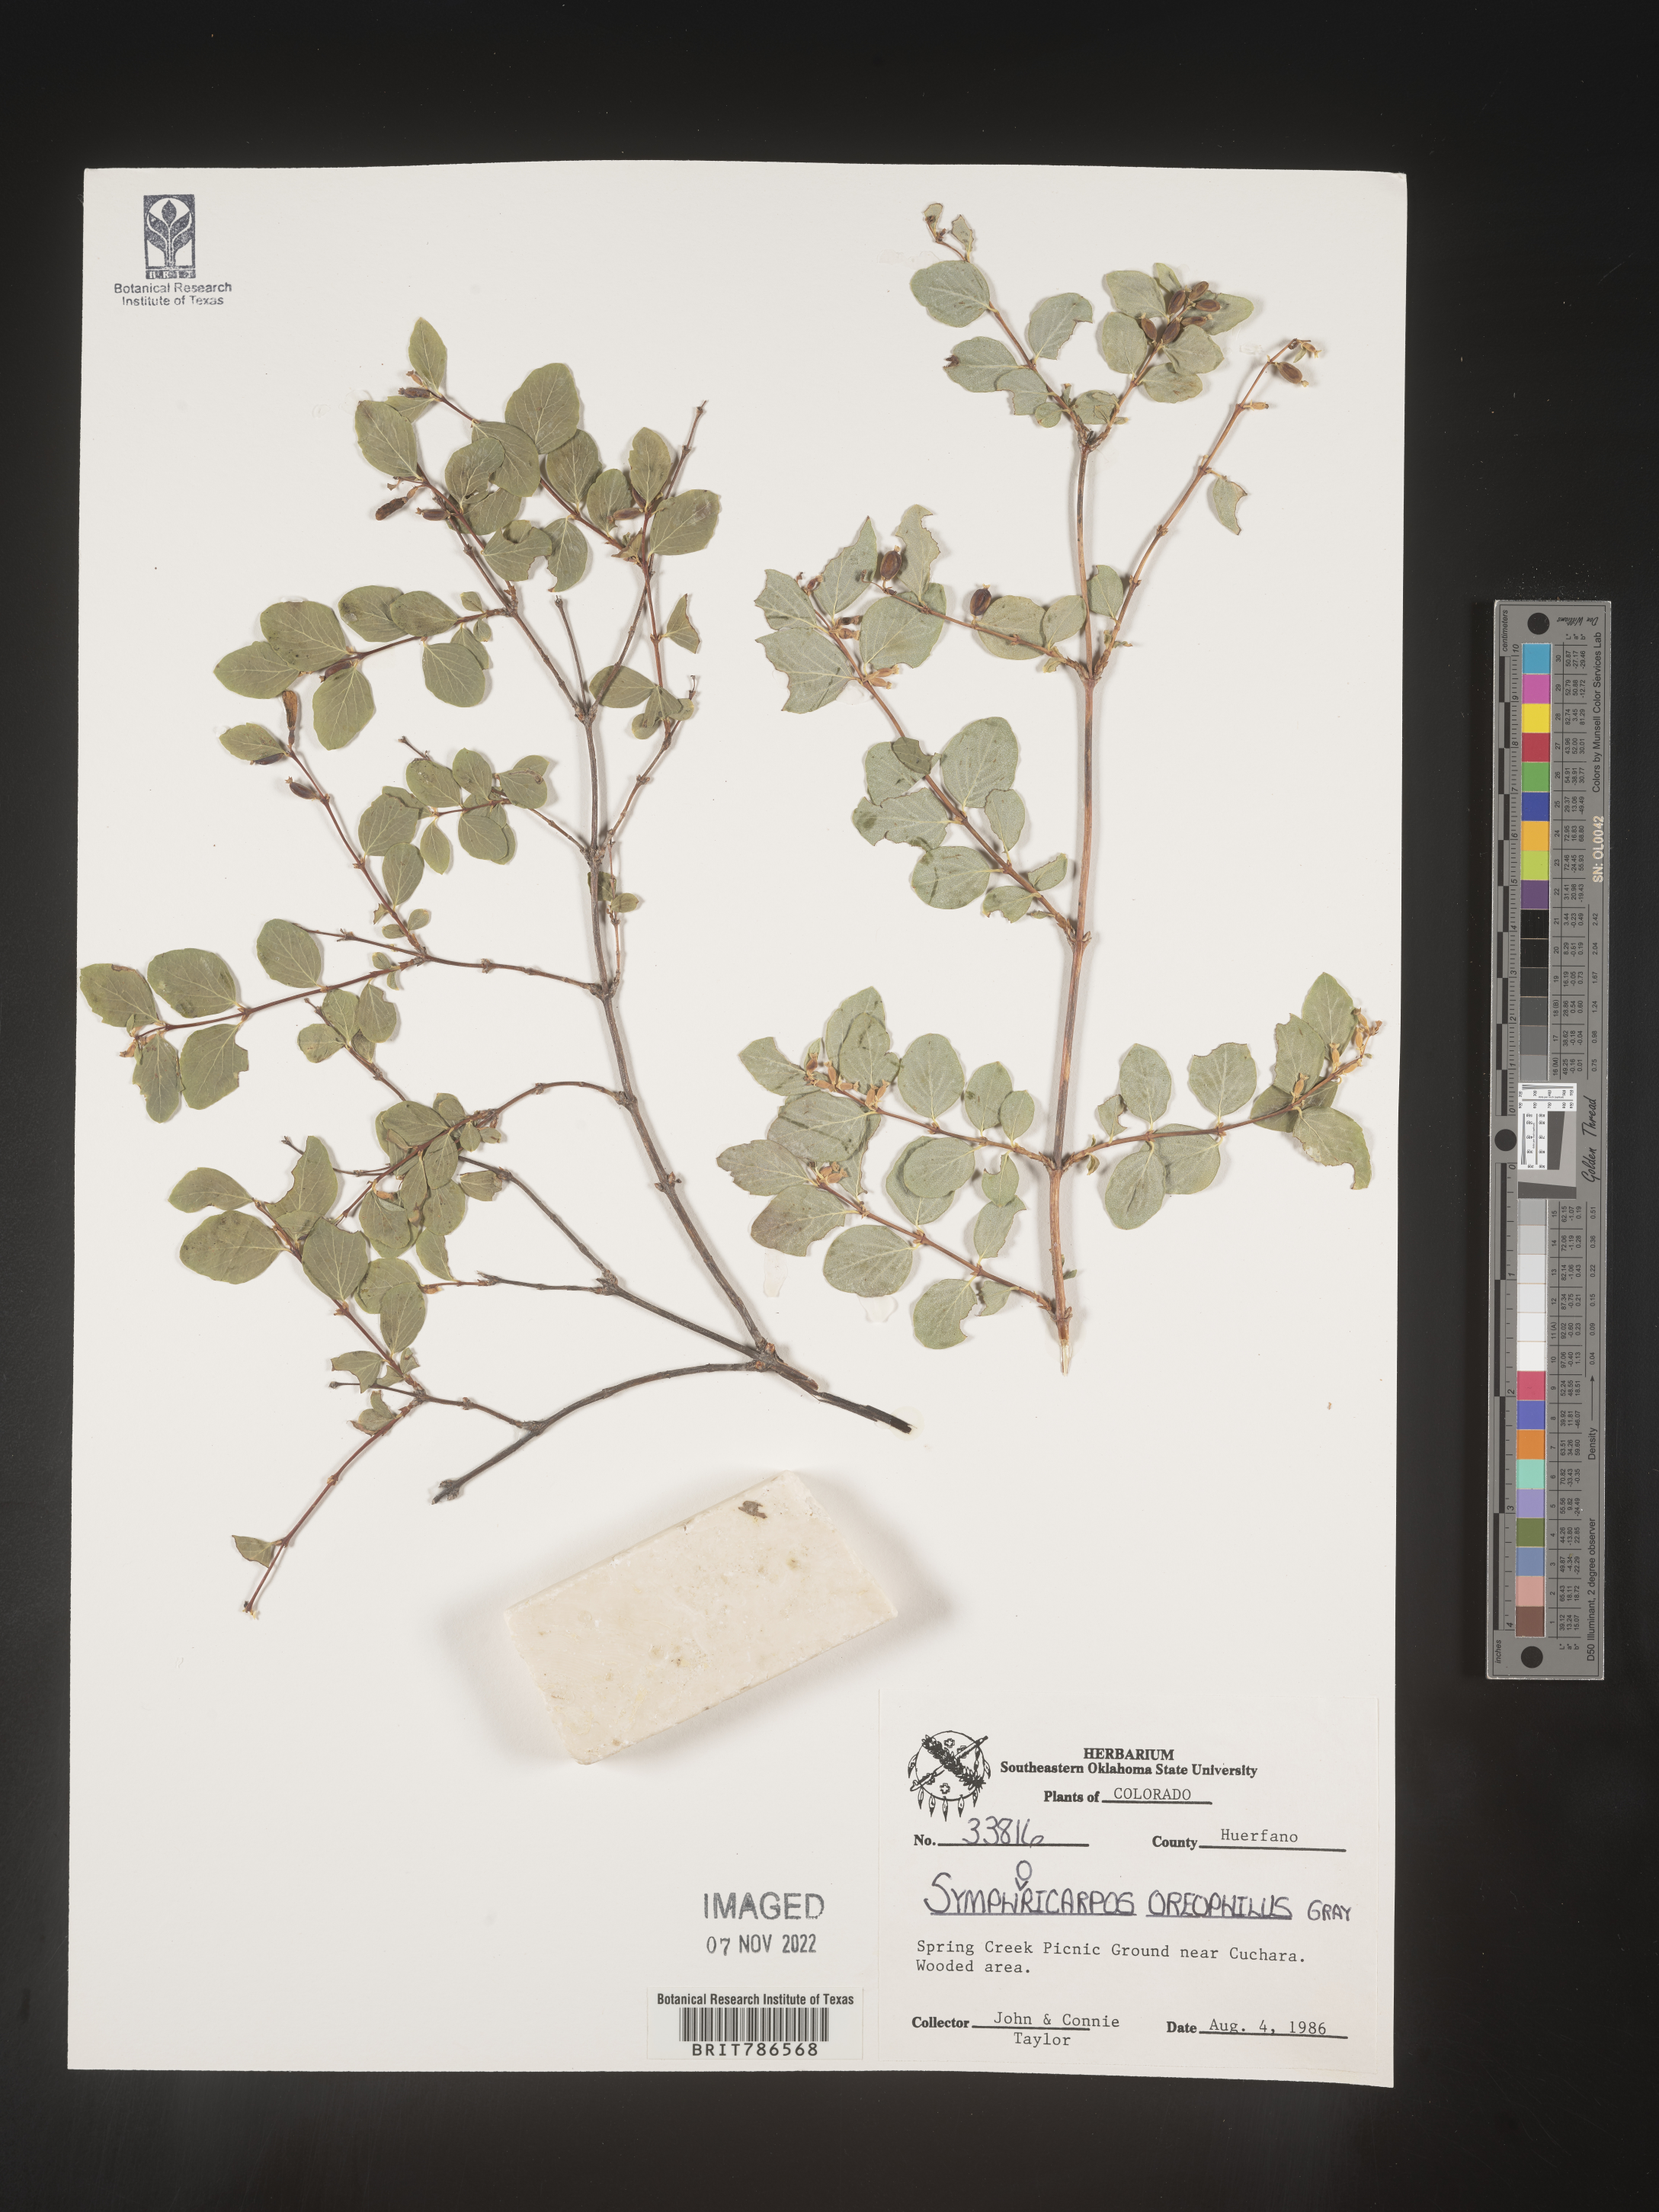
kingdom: Plantae
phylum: Tracheophyta
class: Magnoliopsida
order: Dipsacales
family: Caprifoliaceae
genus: Symphoricarpos
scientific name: Symphoricarpos oreophilus
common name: Mountain snowberry
